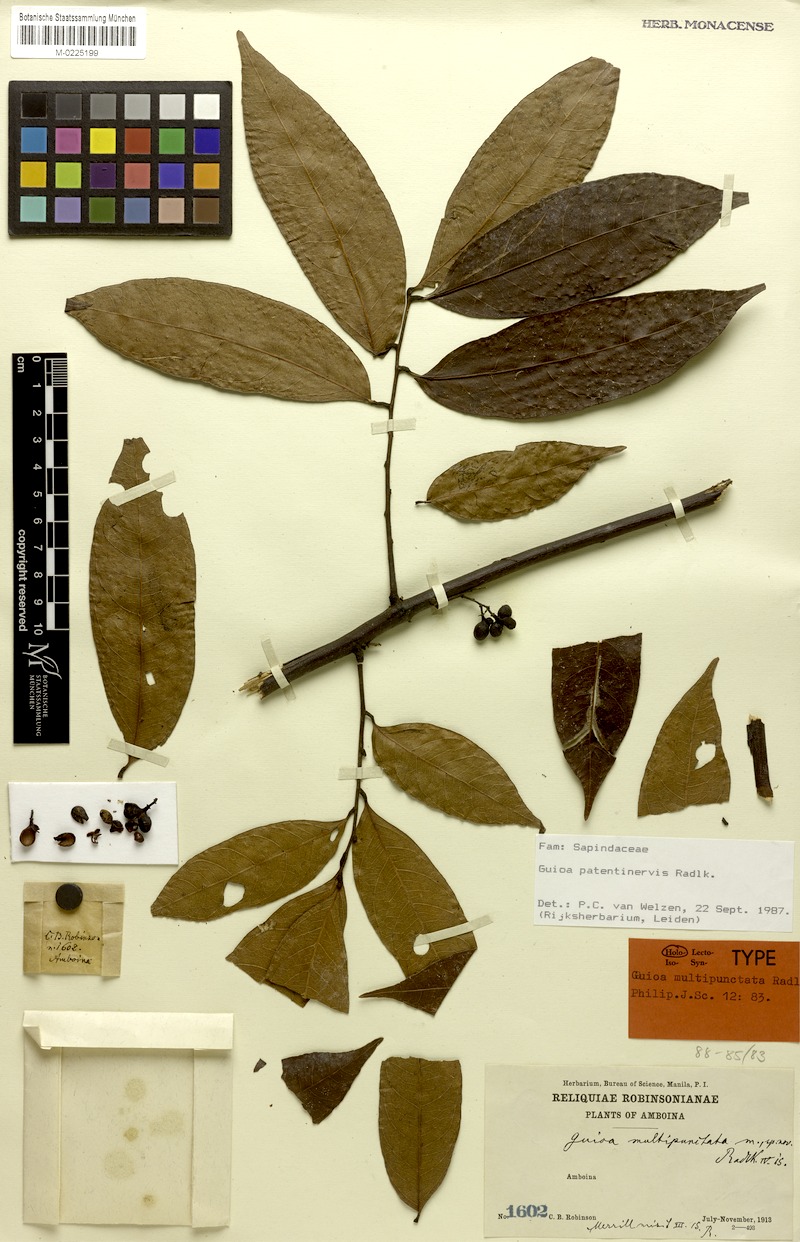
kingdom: Plantae
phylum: Tracheophyta
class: Magnoliopsida
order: Sapindales
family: Sapindaceae
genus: Guioa
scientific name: Guioa patentinervis
